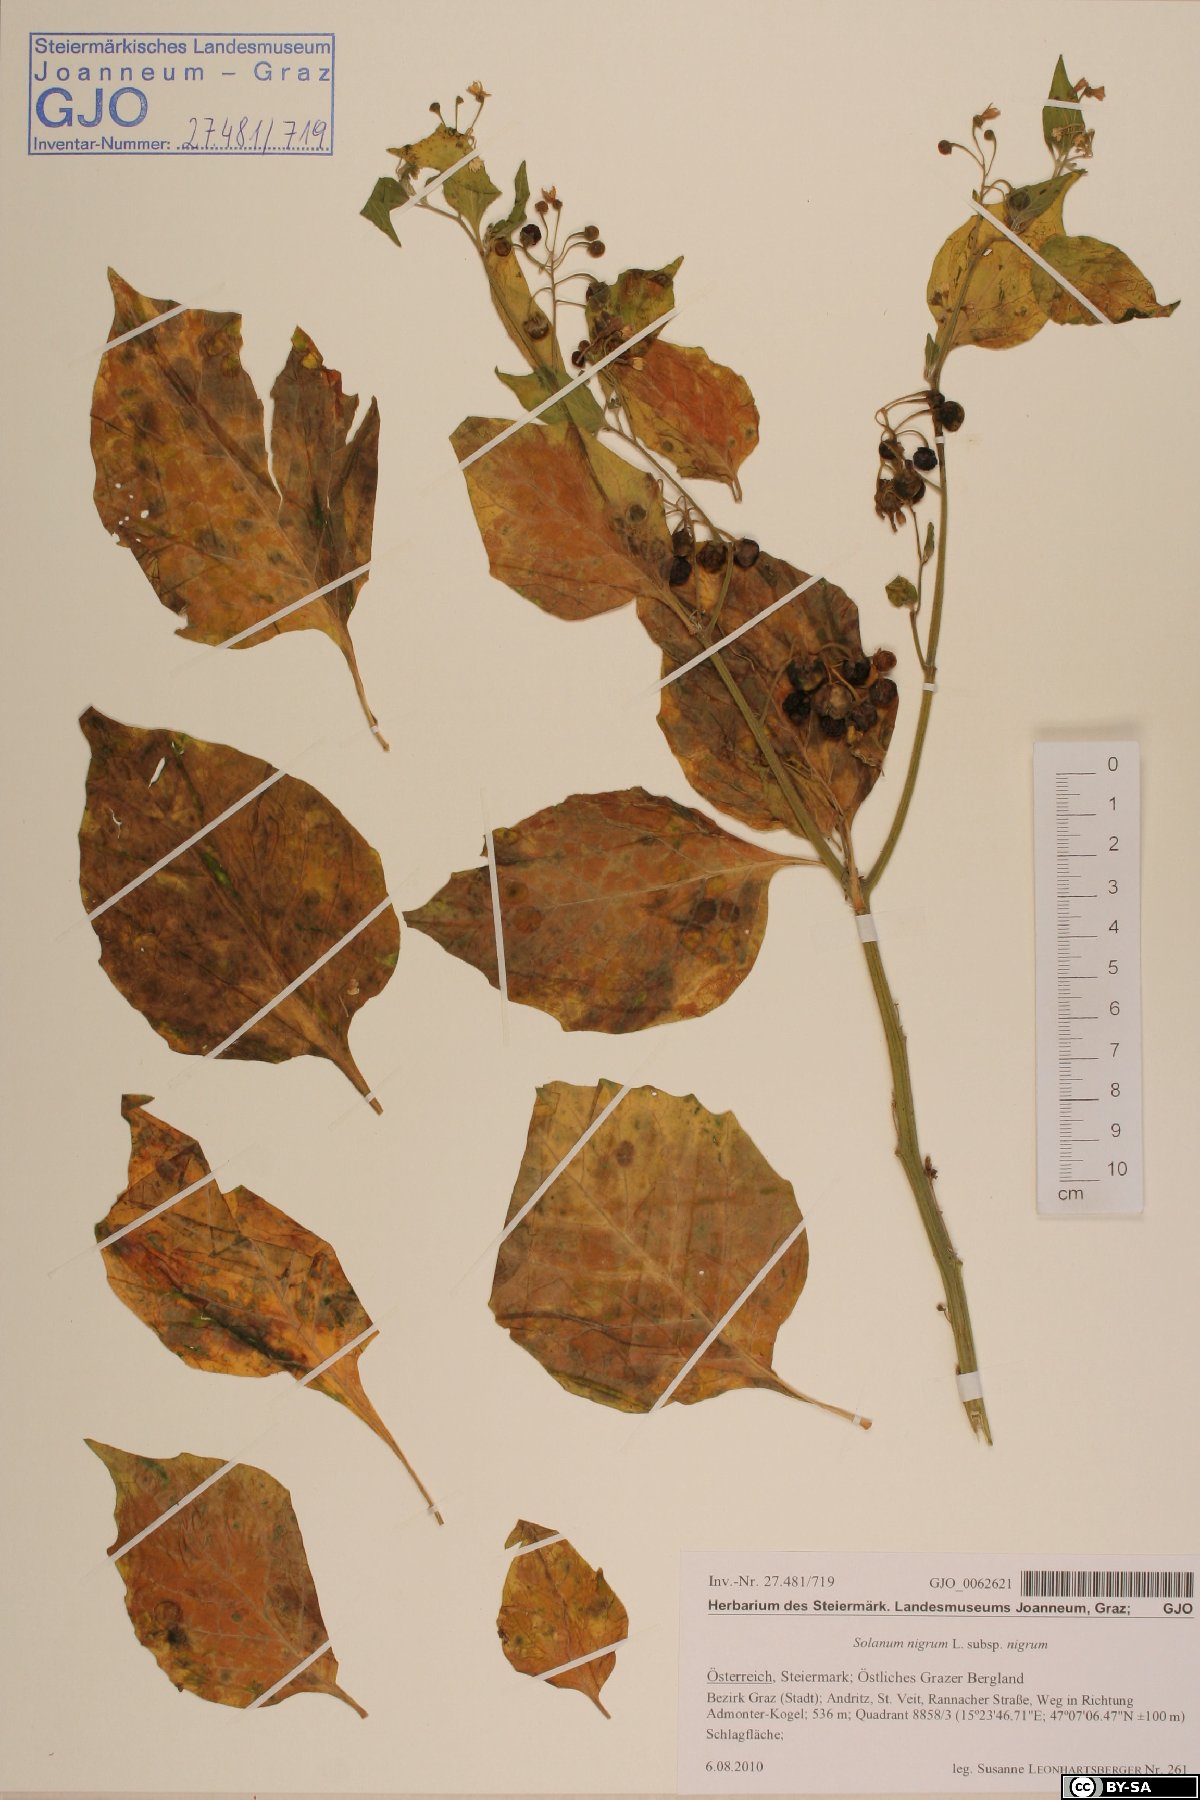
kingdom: Plantae
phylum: Tracheophyta
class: Magnoliopsida
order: Solanales
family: Solanaceae
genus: Solanum
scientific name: Solanum nigrum
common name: Black nightshade
